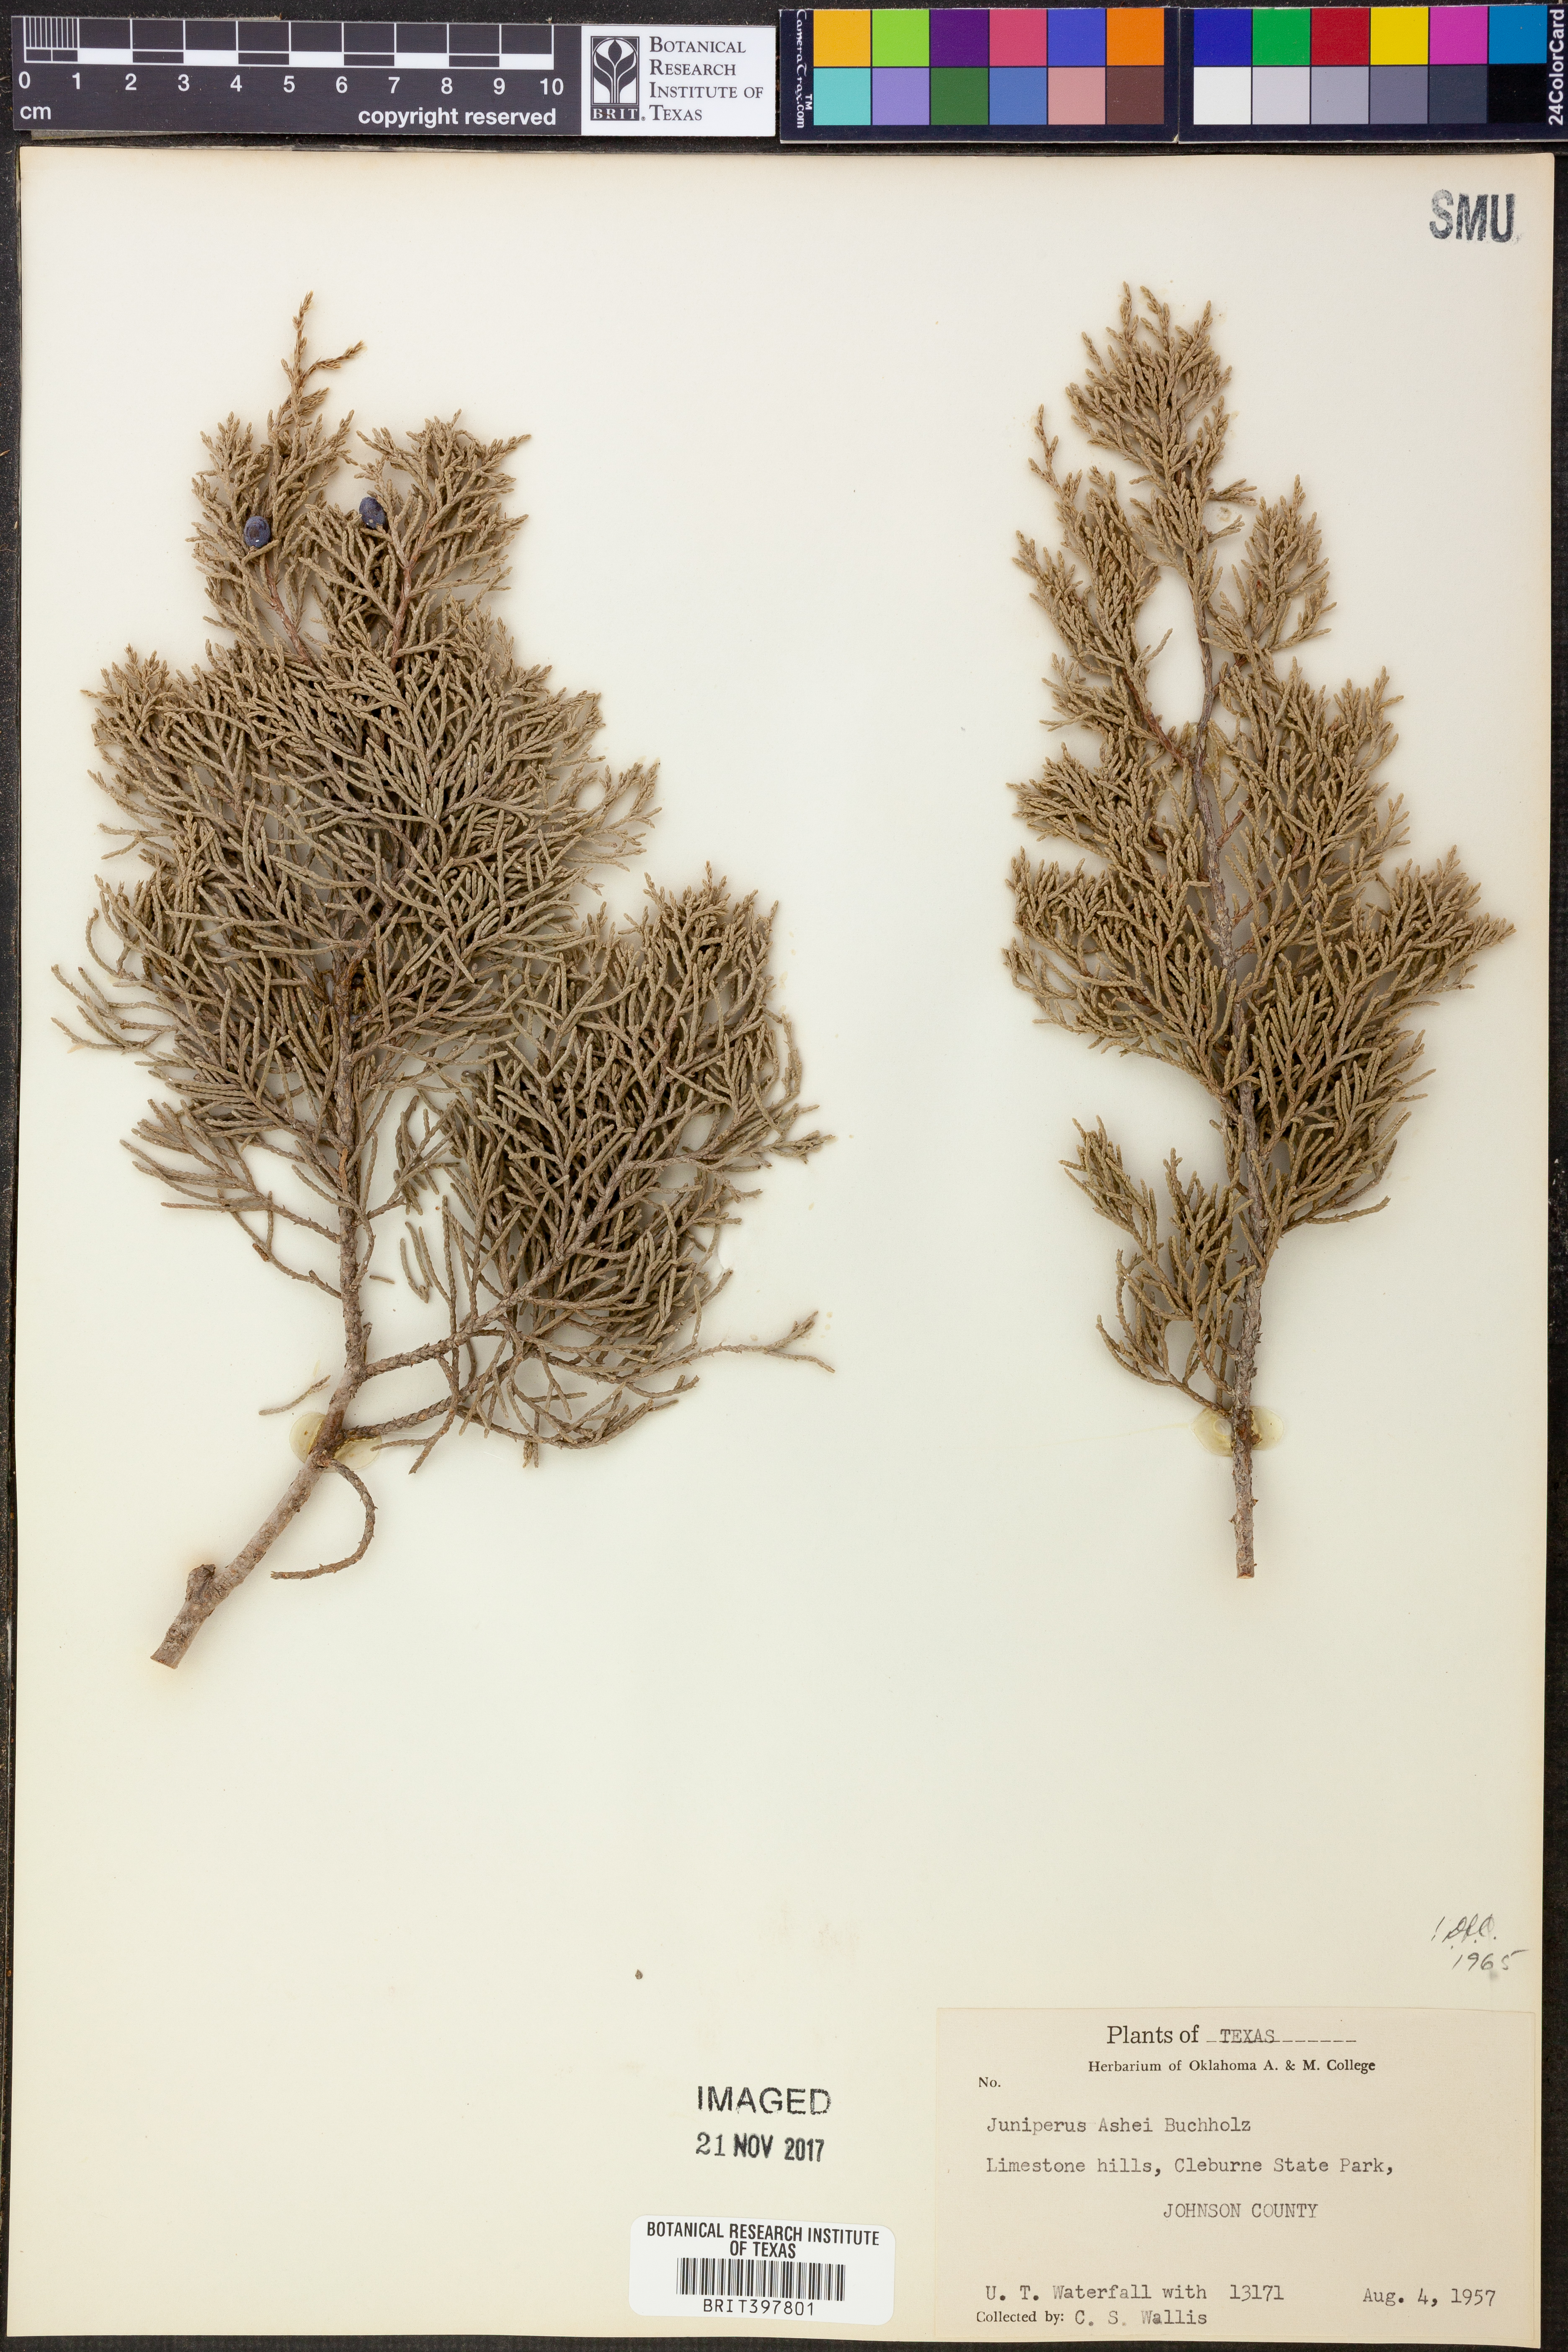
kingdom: Plantae
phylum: Tracheophyta
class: Pinopsida
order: Pinales
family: Cupressaceae
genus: Juniperus
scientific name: Juniperus ashei
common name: Mexican juniper
